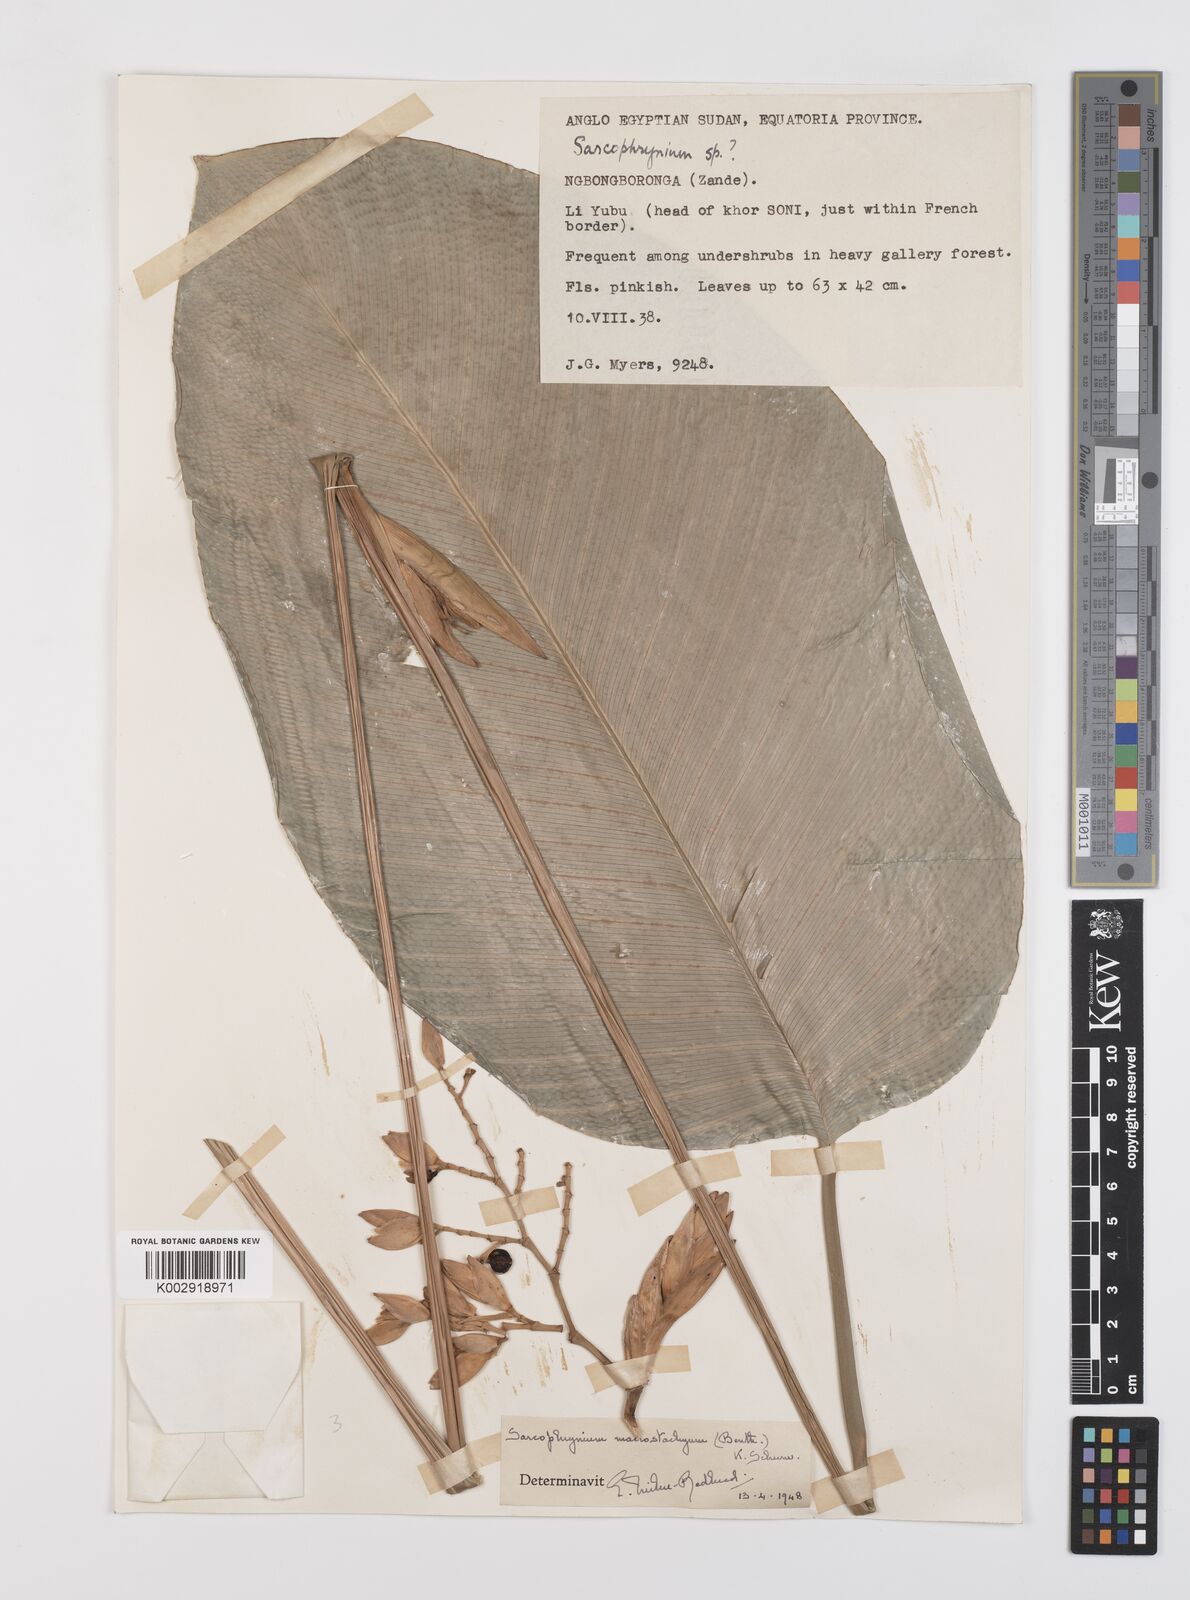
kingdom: Plantae
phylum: Tracheophyta
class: Liliopsida
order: Zingiberales
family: Marantaceae
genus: Megaphrynium
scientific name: Megaphrynium
